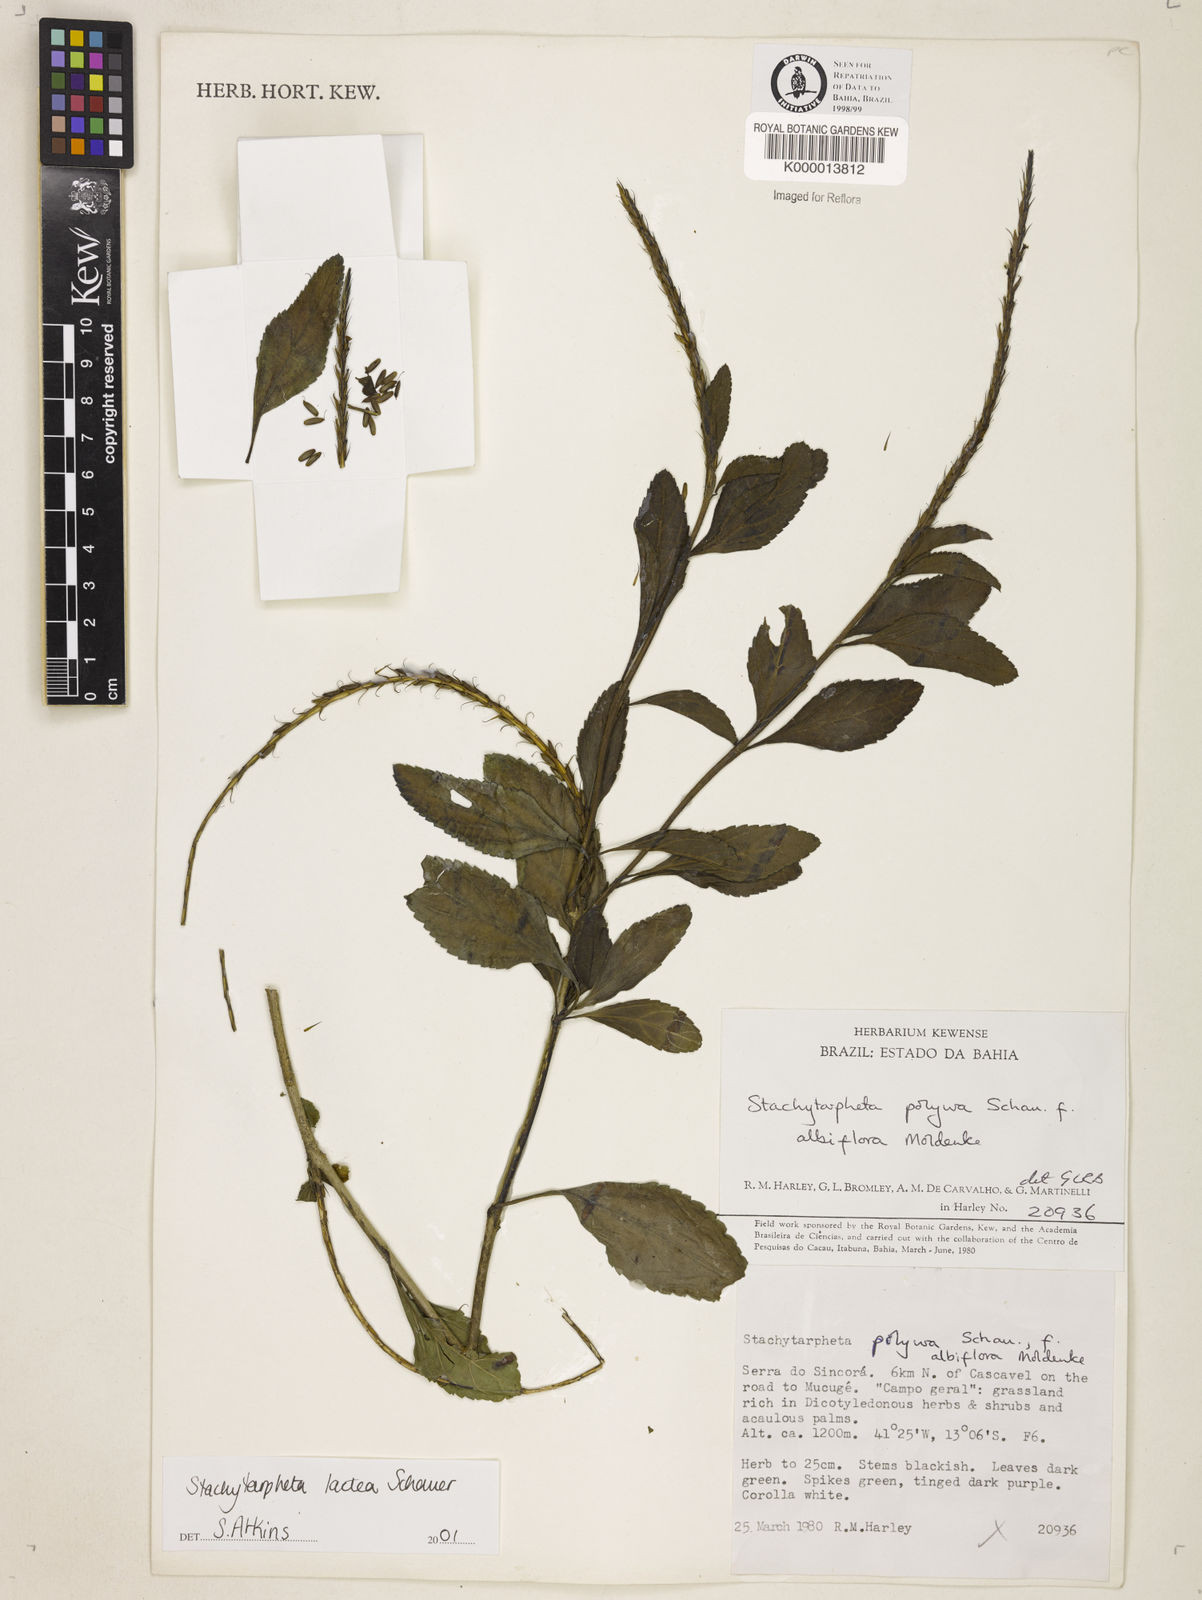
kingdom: Plantae
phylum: Tracheophyta
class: Magnoliopsida
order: Lamiales
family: Verbenaceae
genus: Stachytarpheta
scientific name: Stachytarpheta polyura
